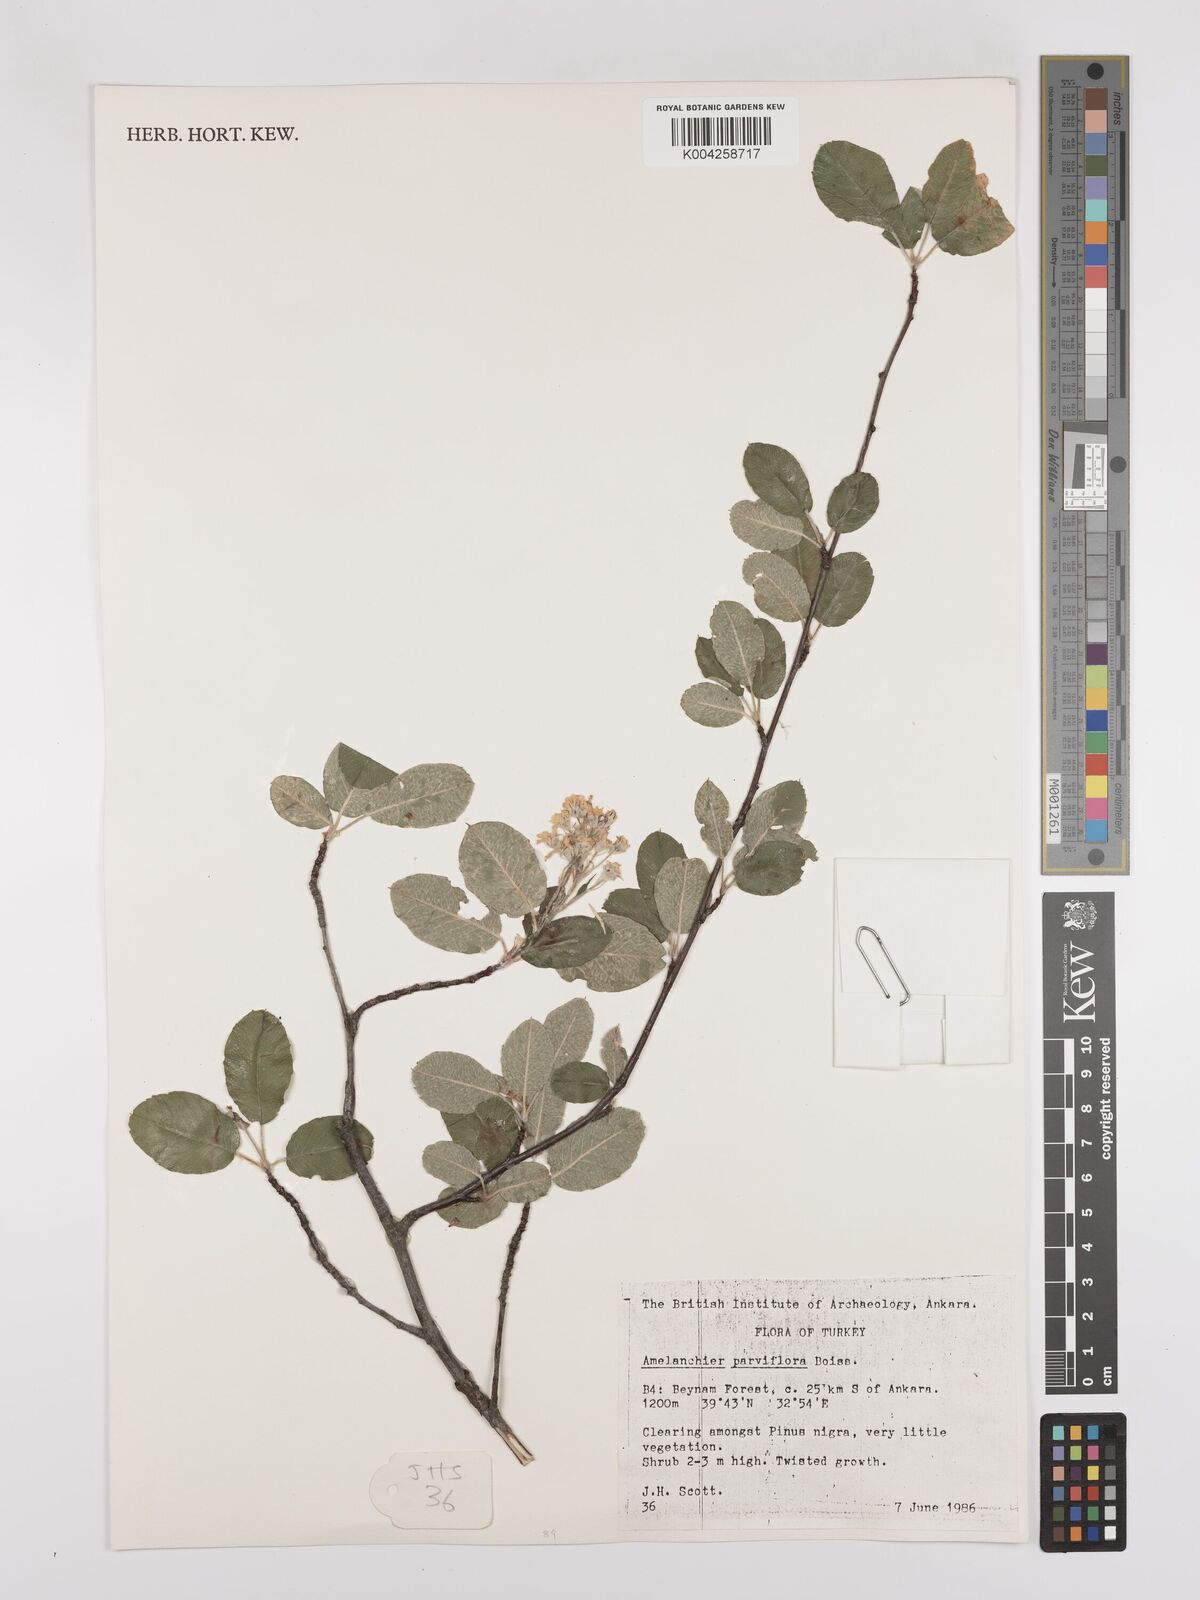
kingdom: Plantae
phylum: Tracheophyta
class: Magnoliopsida
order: Rosales
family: Rosaceae
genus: Amelanchier
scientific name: Amelanchier parviflora
